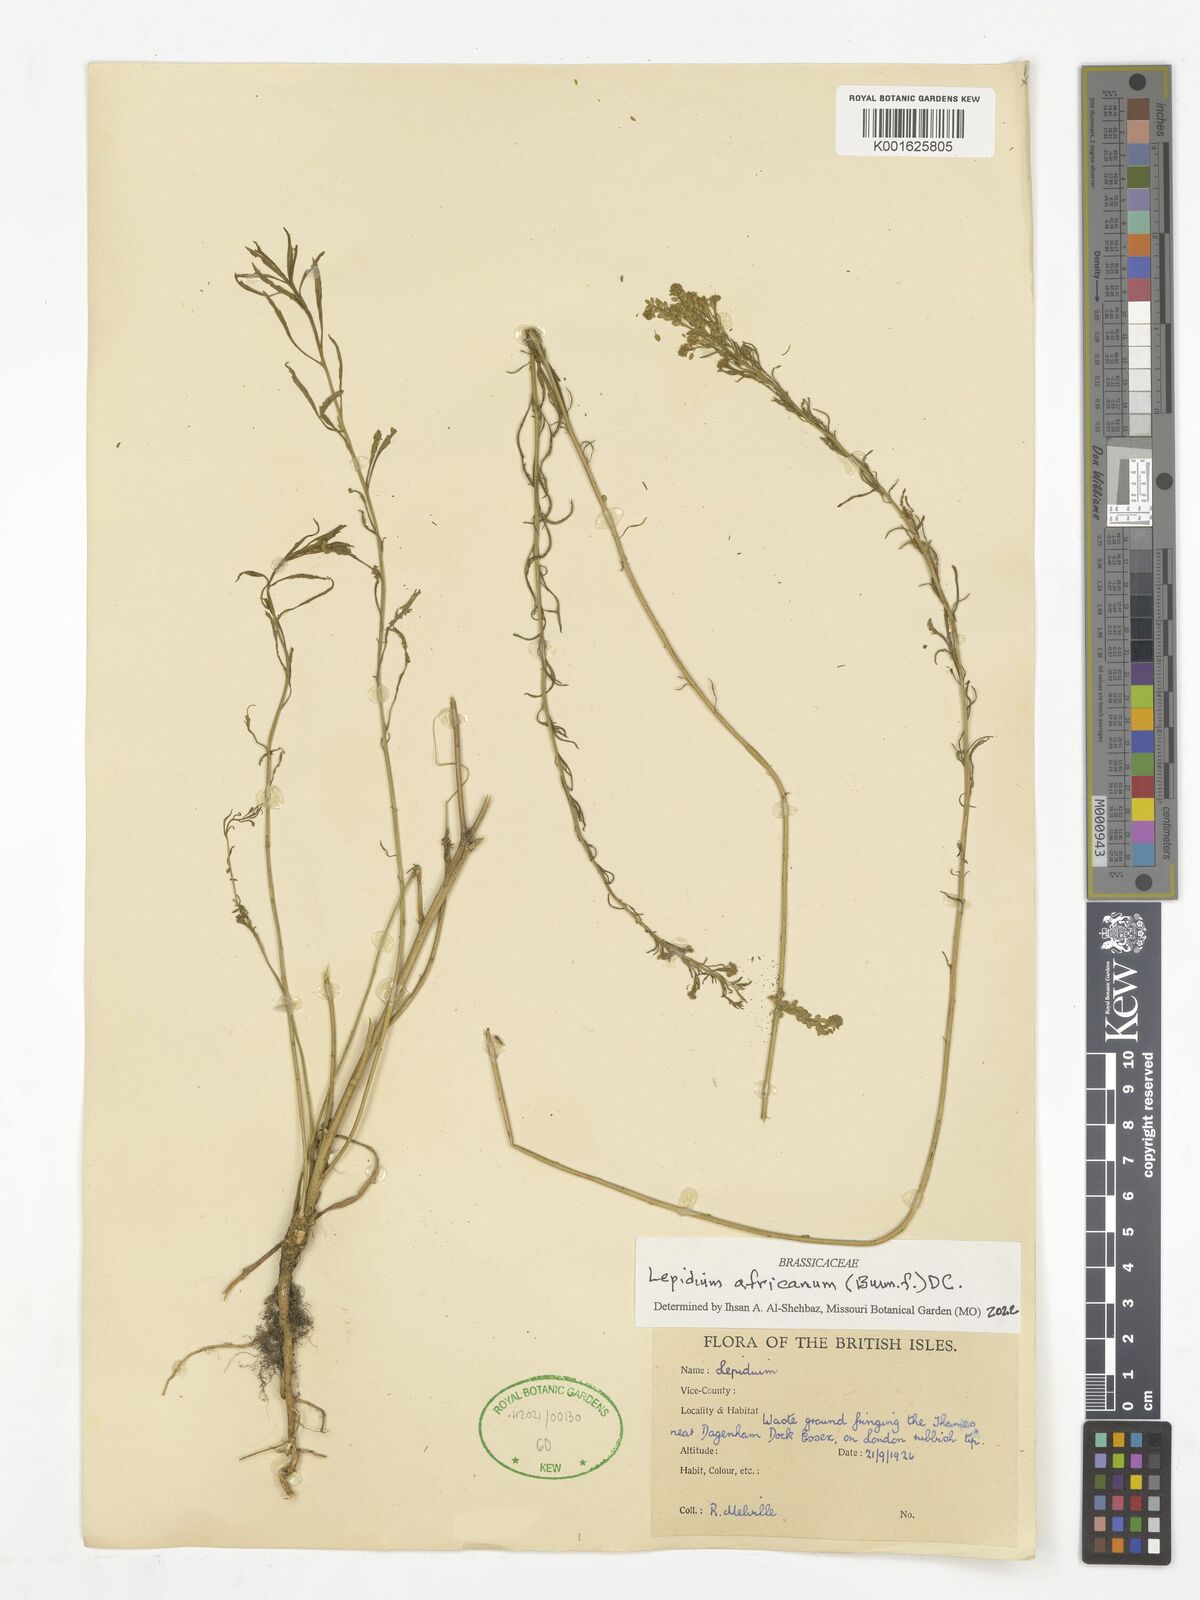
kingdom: Plantae
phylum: Tracheophyta
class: Magnoliopsida
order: Brassicales
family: Brassicaceae
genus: Lepidium
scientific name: Lepidium africanum
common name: African pepperwort
